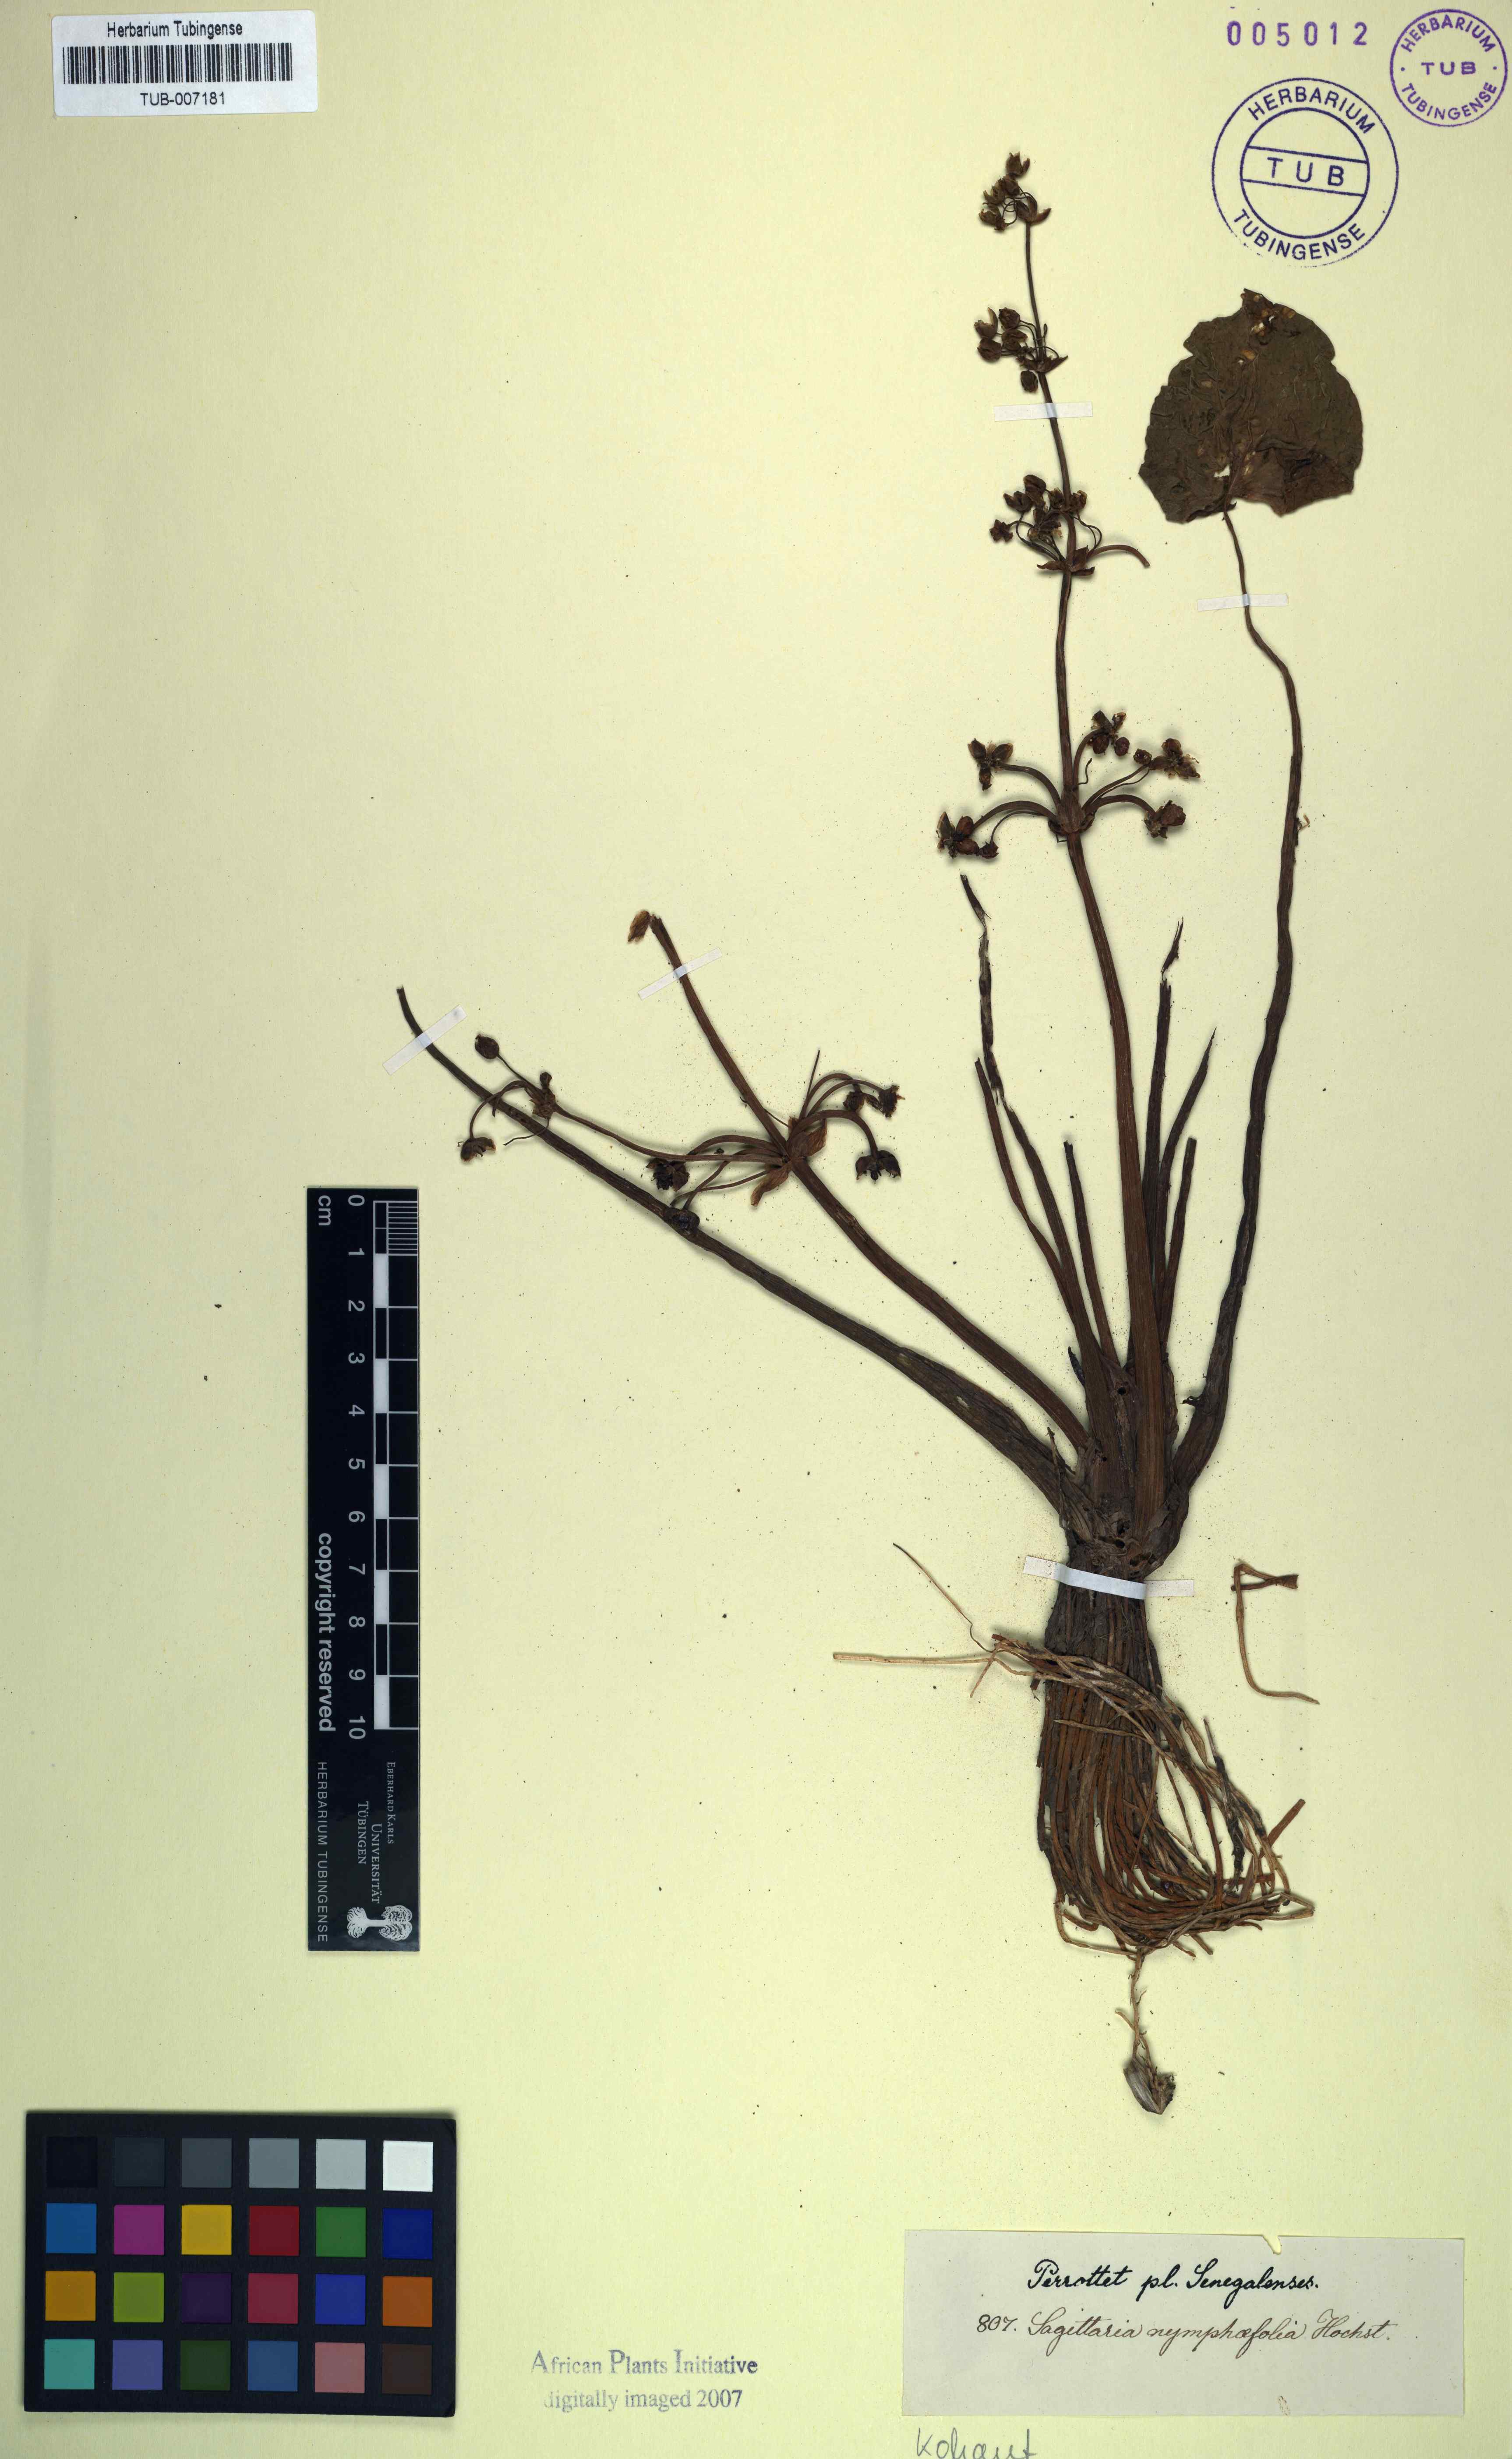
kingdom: Plantae
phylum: Tracheophyta
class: Liliopsida
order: Alismatales
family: Alismataceae
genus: Limnophyton
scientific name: Limnophyton obtusifolium
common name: Arrow head
